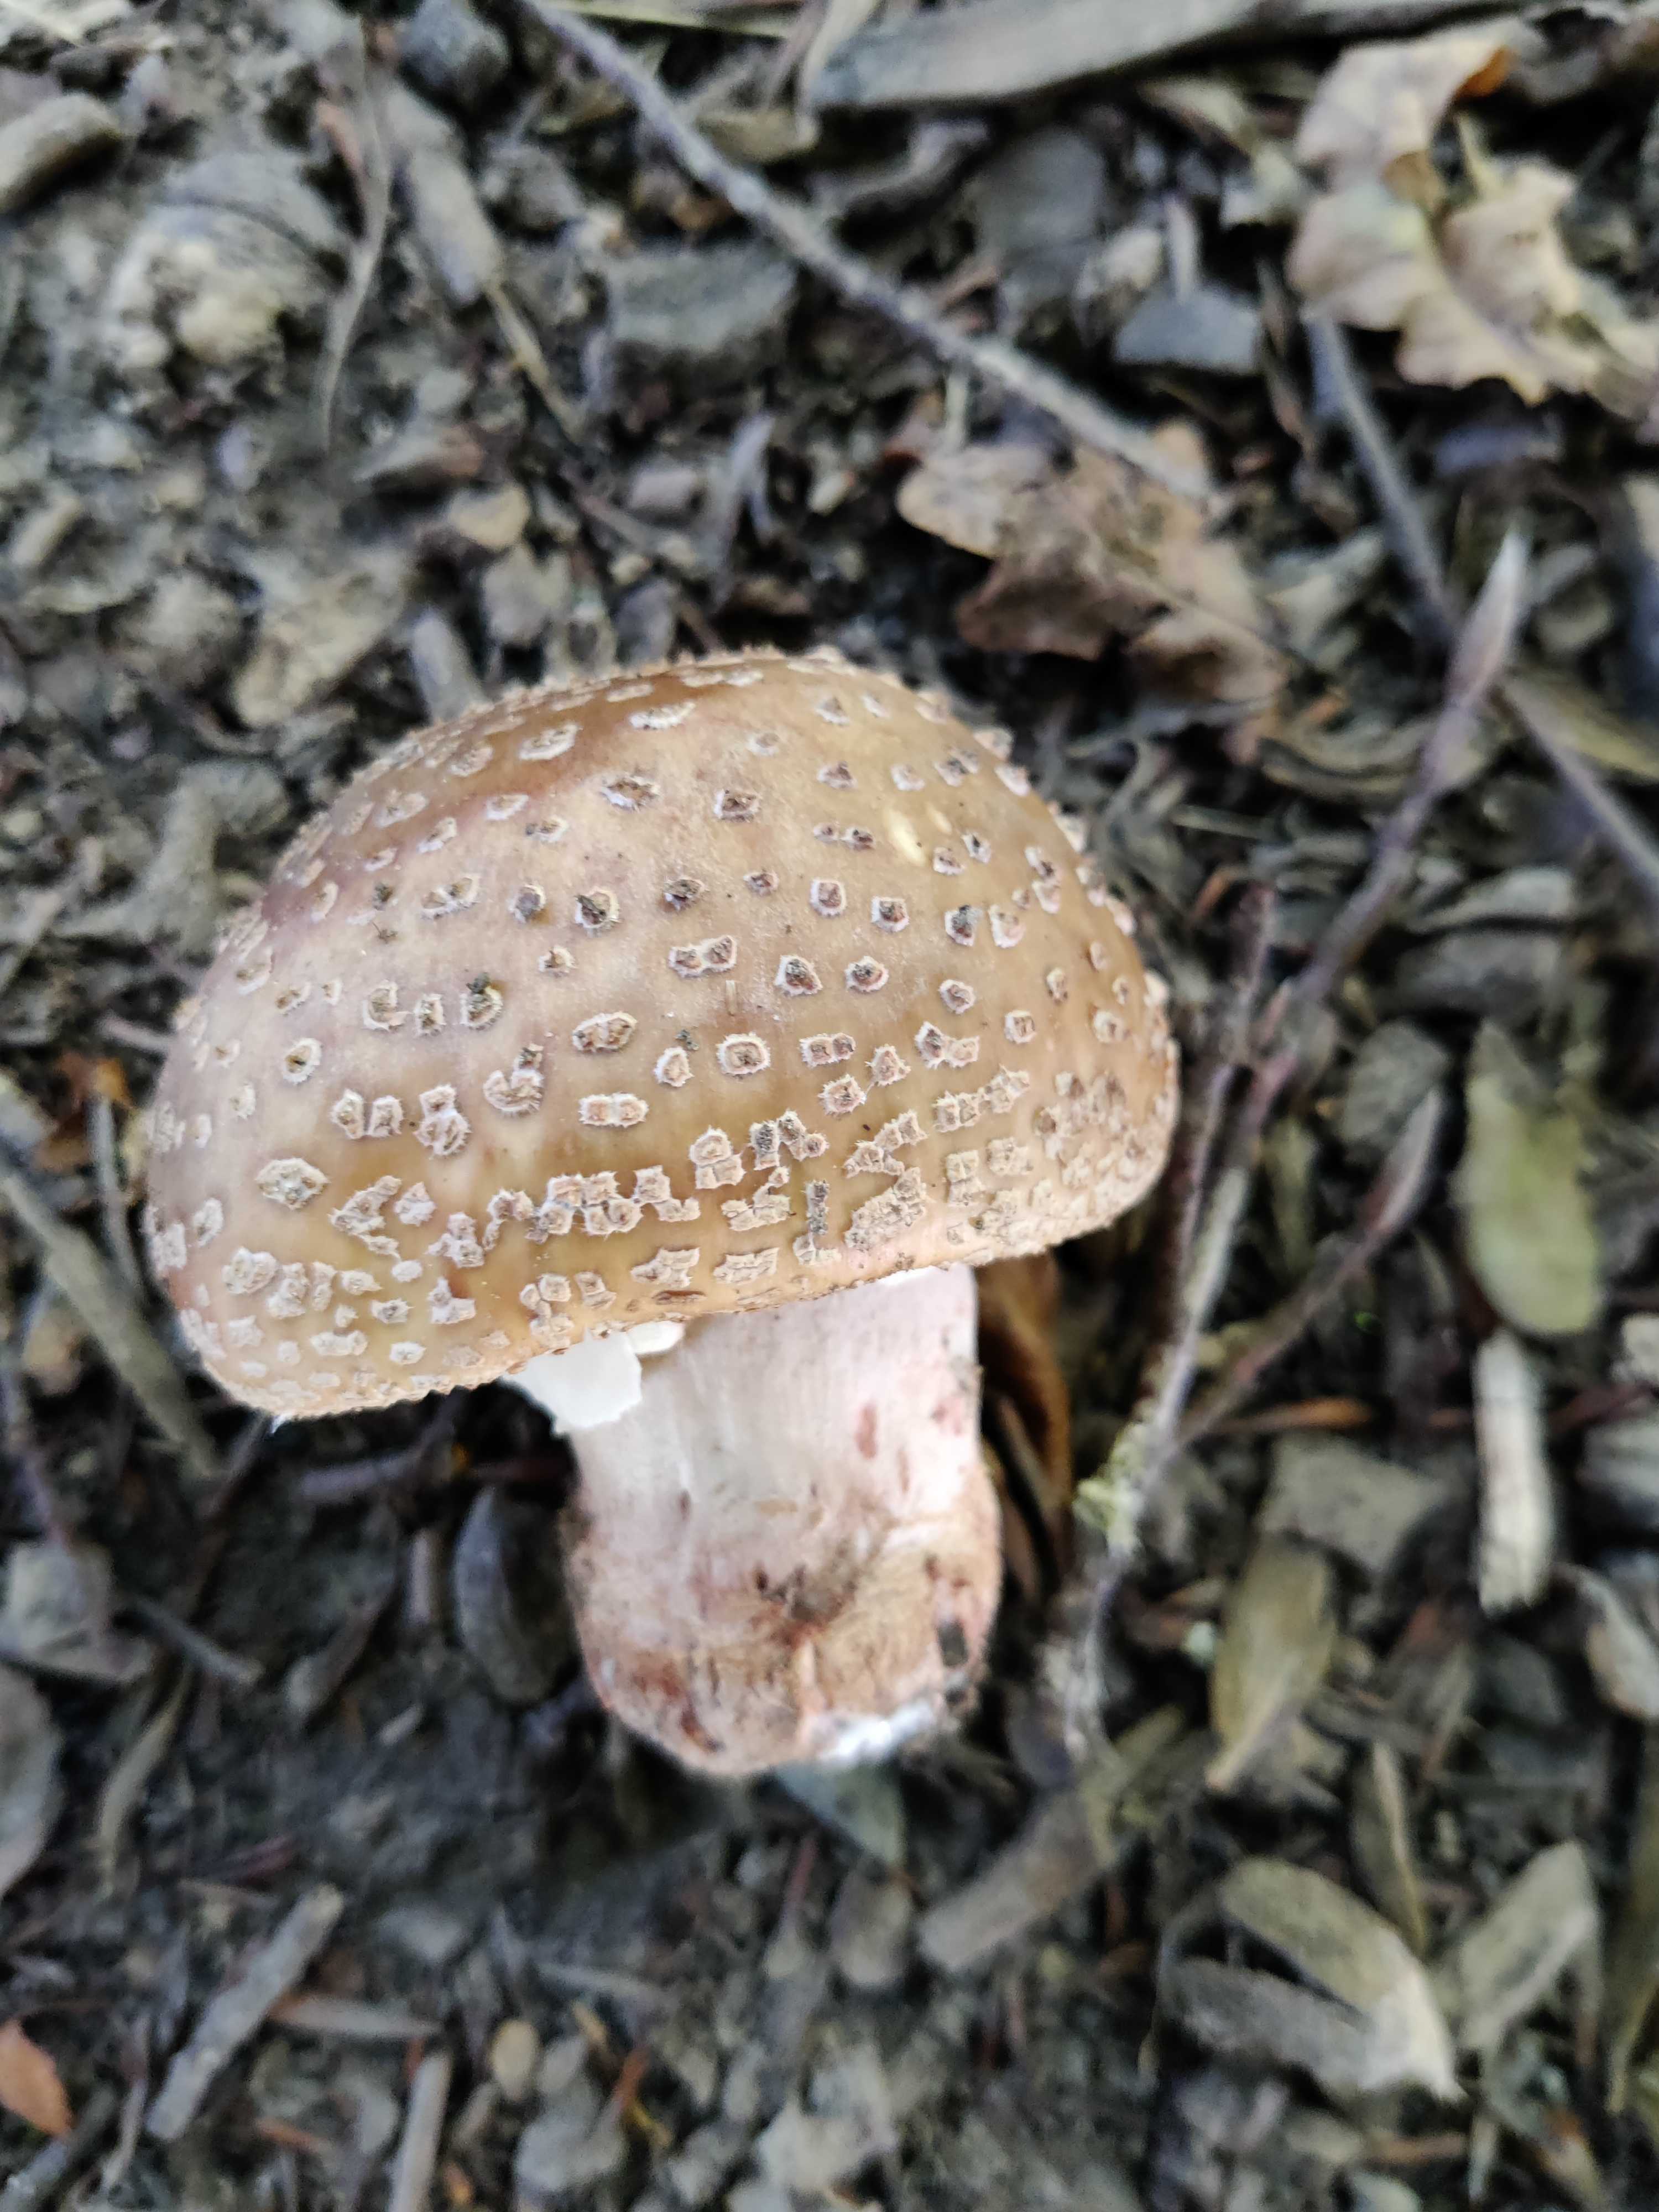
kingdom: Fungi
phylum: Basidiomycota
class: Agaricomycetes
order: Agaricales
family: Amanitaceae
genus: Amanita
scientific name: Amanita rubescens
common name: rødmende fluesvamp
